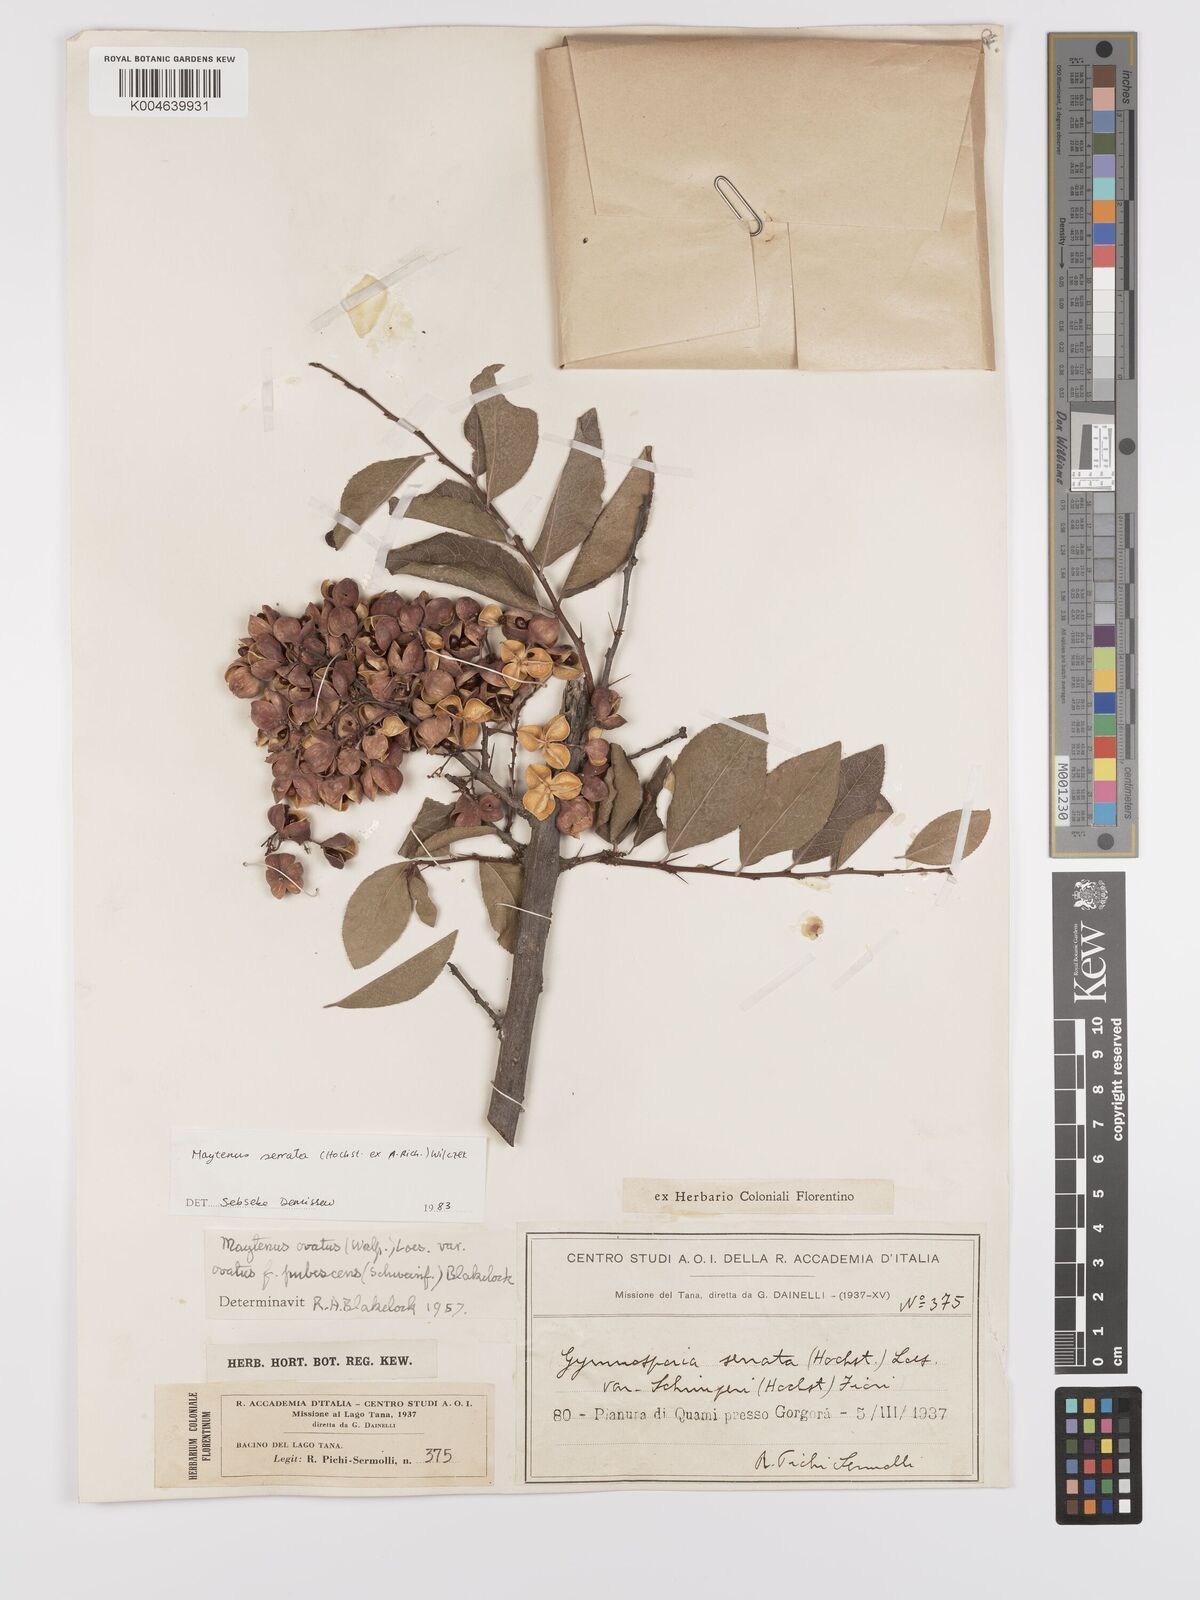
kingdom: Plantae
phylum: Tracheophyta
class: Magnoliopsida
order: Celastrales
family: Celastraceae
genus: Gymnosporia
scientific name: Gymnosporia serrata
